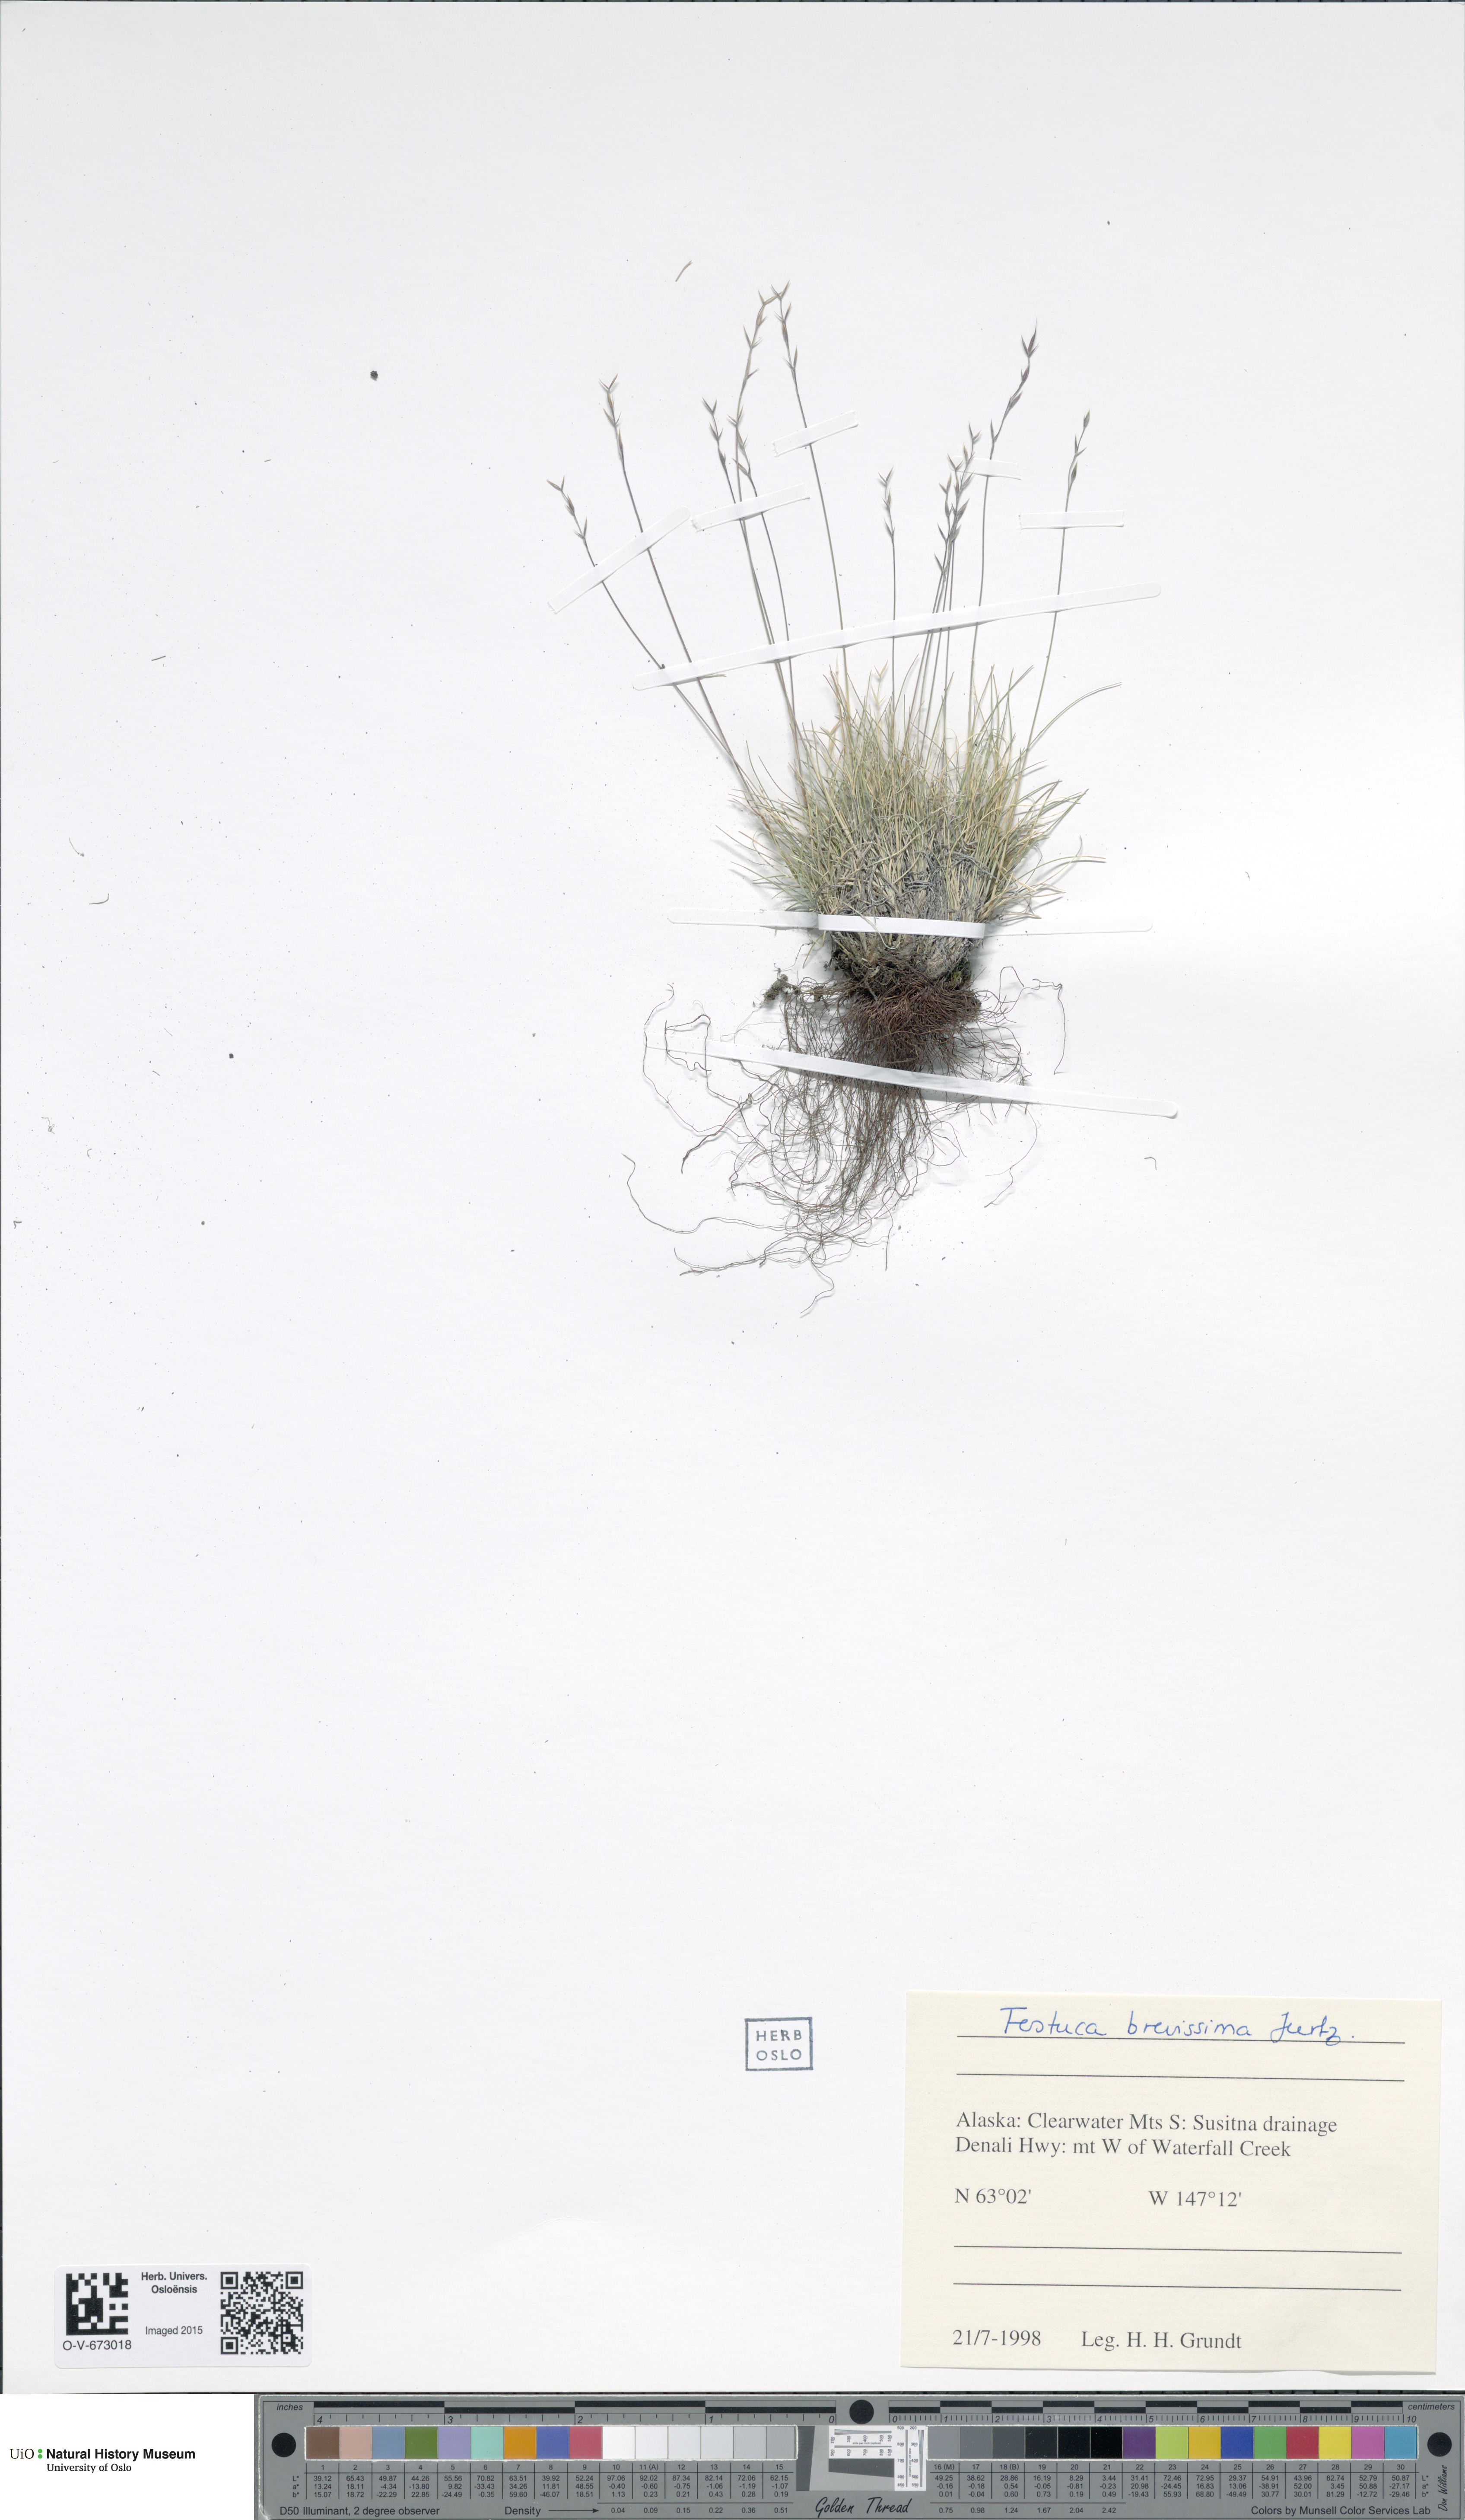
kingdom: Plantae
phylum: Tracheophyta
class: Liliopsida
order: Poales
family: Poaceae
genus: Festuca
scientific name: Festuca brevissima
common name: Alaska fescue
